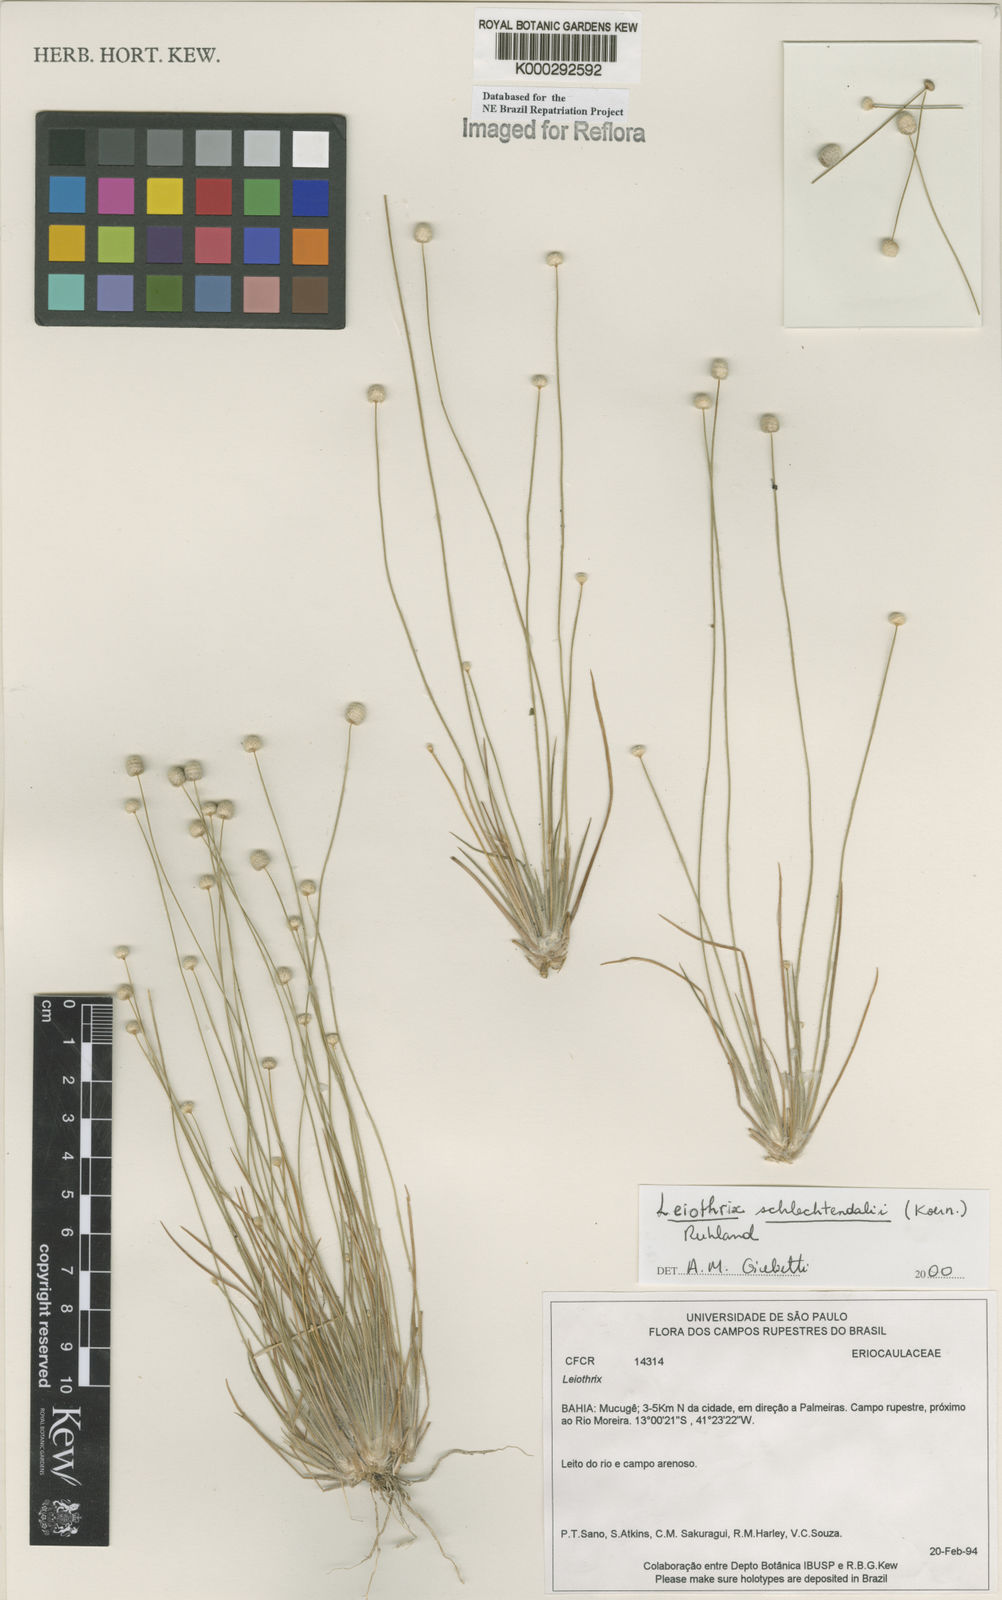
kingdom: Plantae
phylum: Tracheophyta
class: Liliopsida
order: Poales
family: Eriocaulaceae
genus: Leiothrix
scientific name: Leiothrix schlechtendalii
